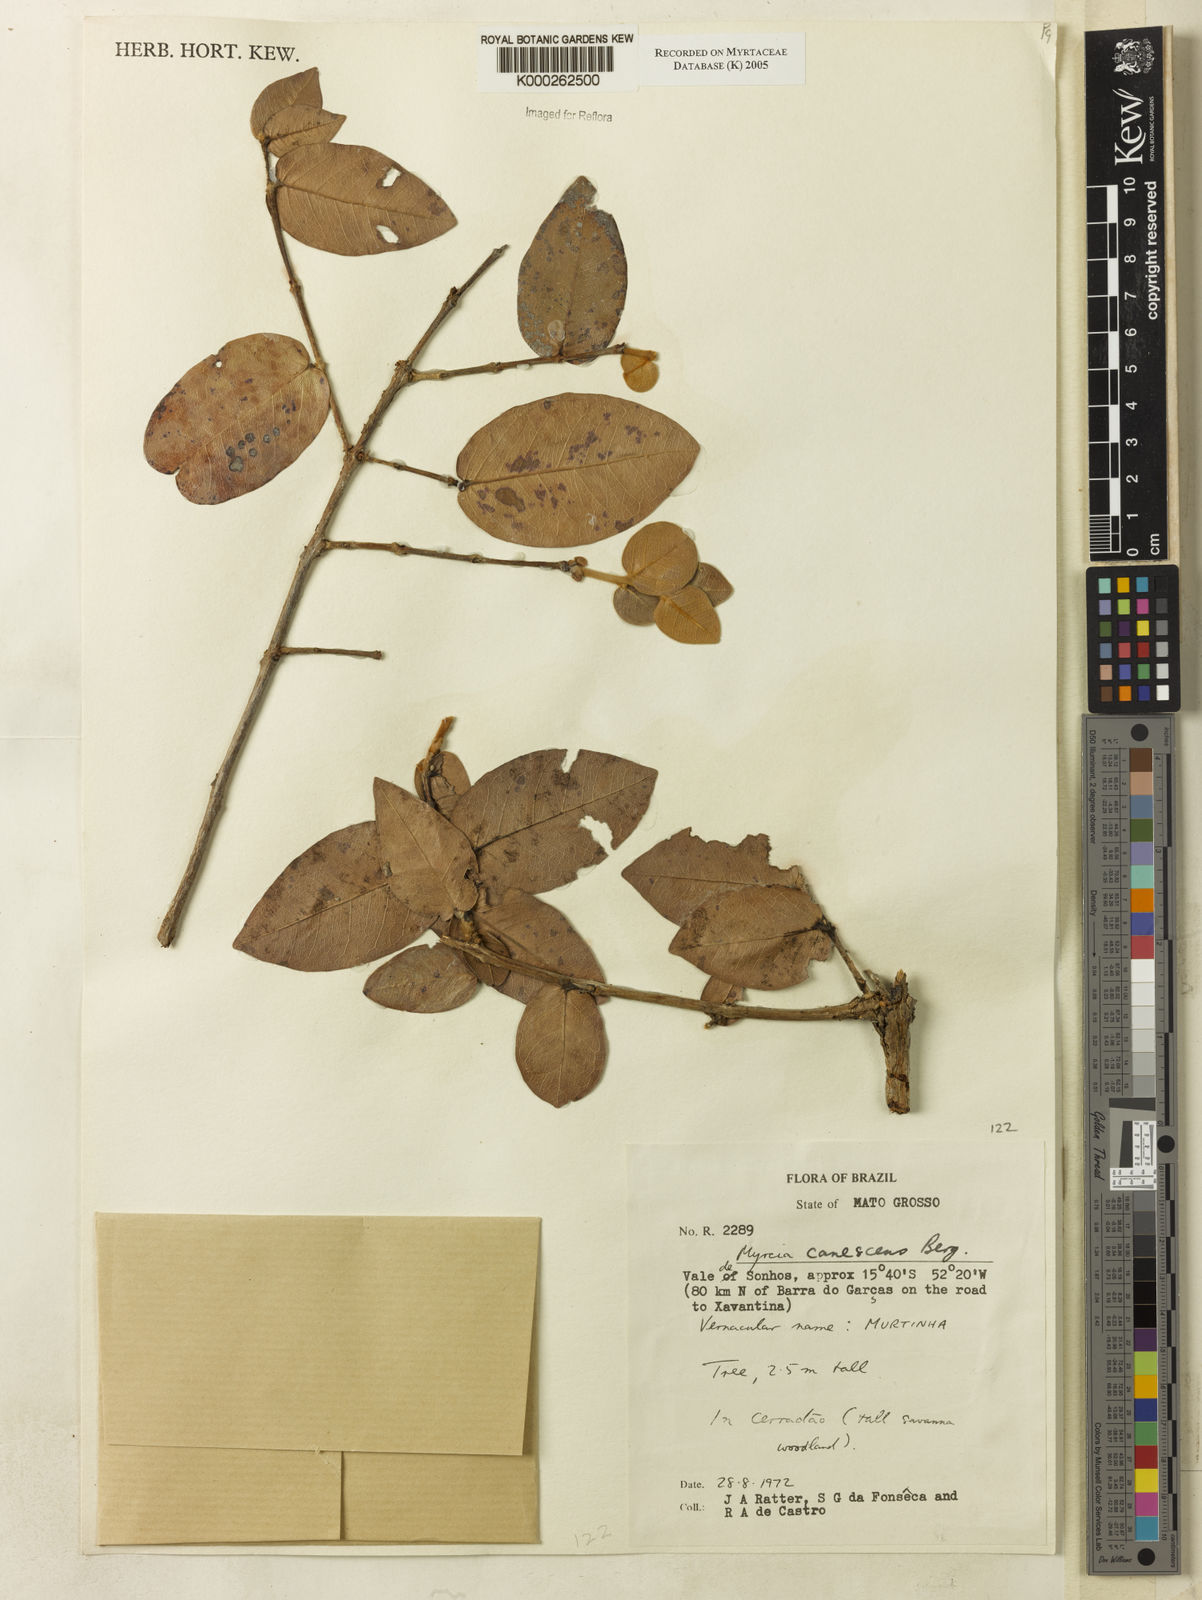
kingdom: Plantae
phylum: Tracheophyta
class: Magnoliopsida
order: Myrtales
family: Myrtaceae
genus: Myrcia
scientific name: Myrcia canescens
